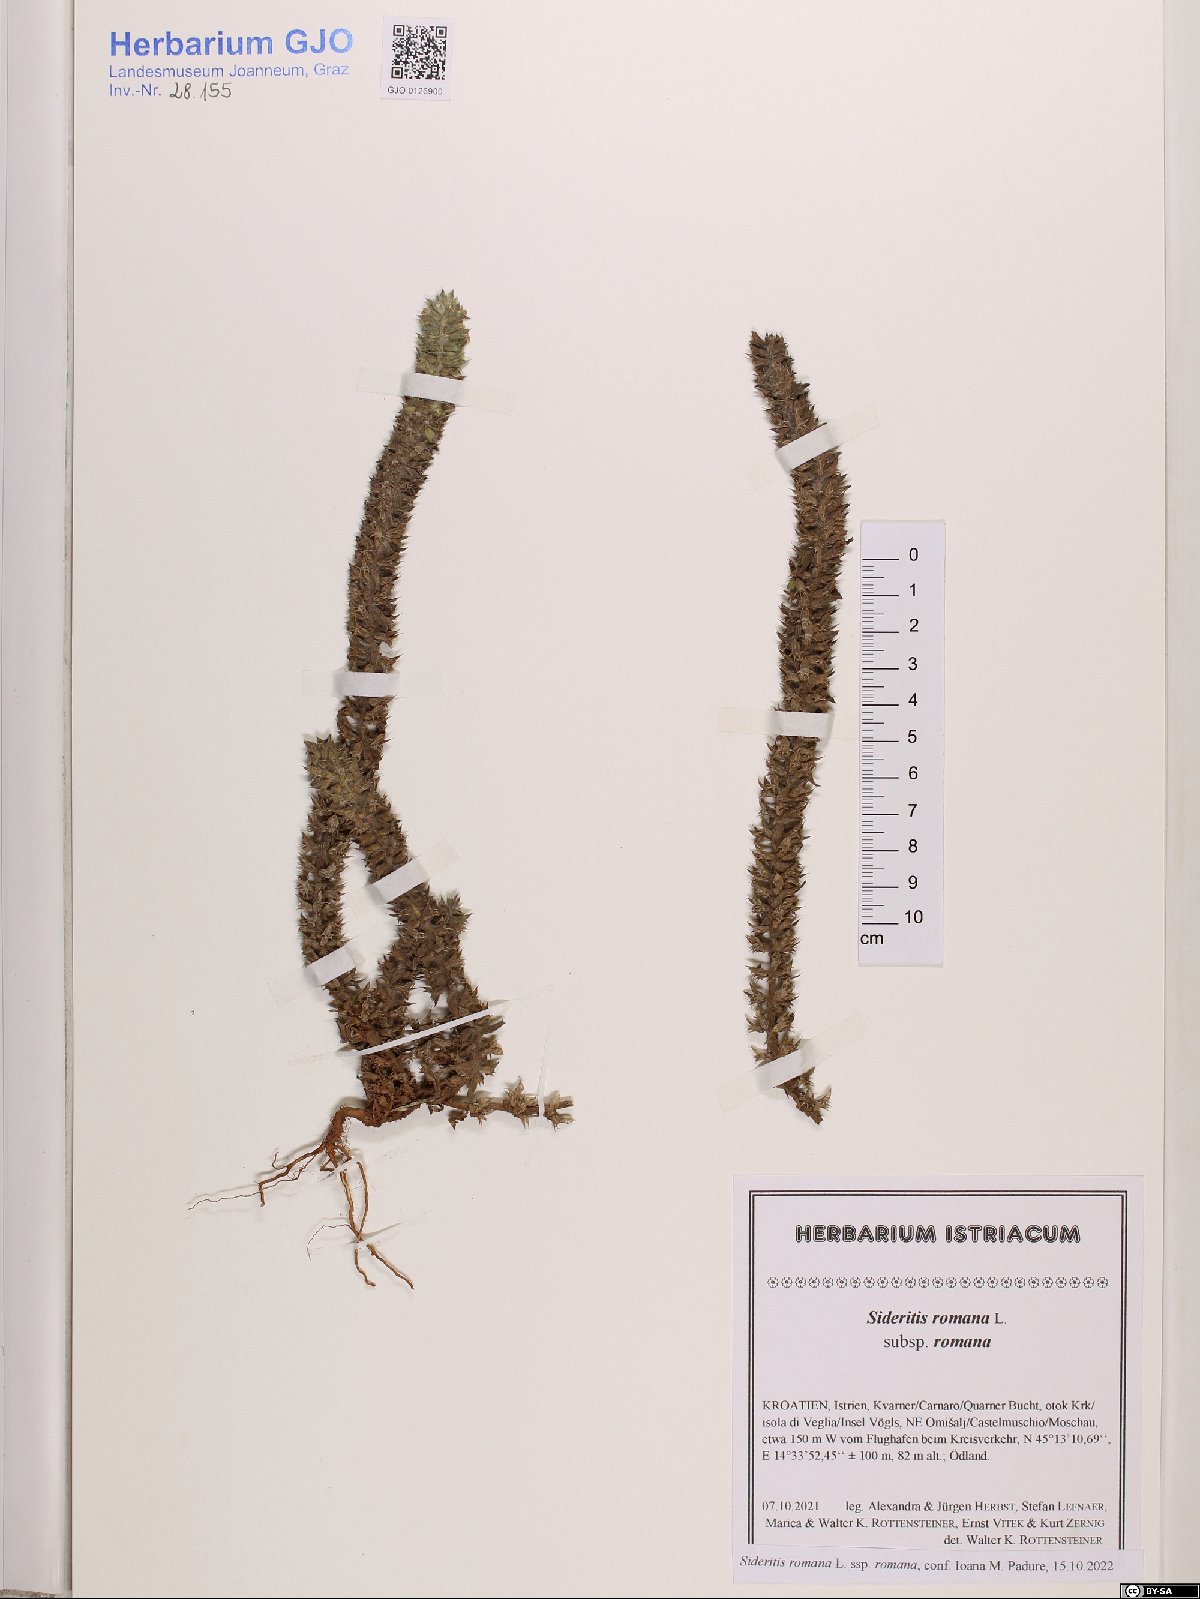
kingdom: Plantae
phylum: Tracheophyta
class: Magnoliopsida
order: Lamiales
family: Lamiaceae
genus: Sideritis
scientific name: Sideritis romana
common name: Simplebeak ironwort
